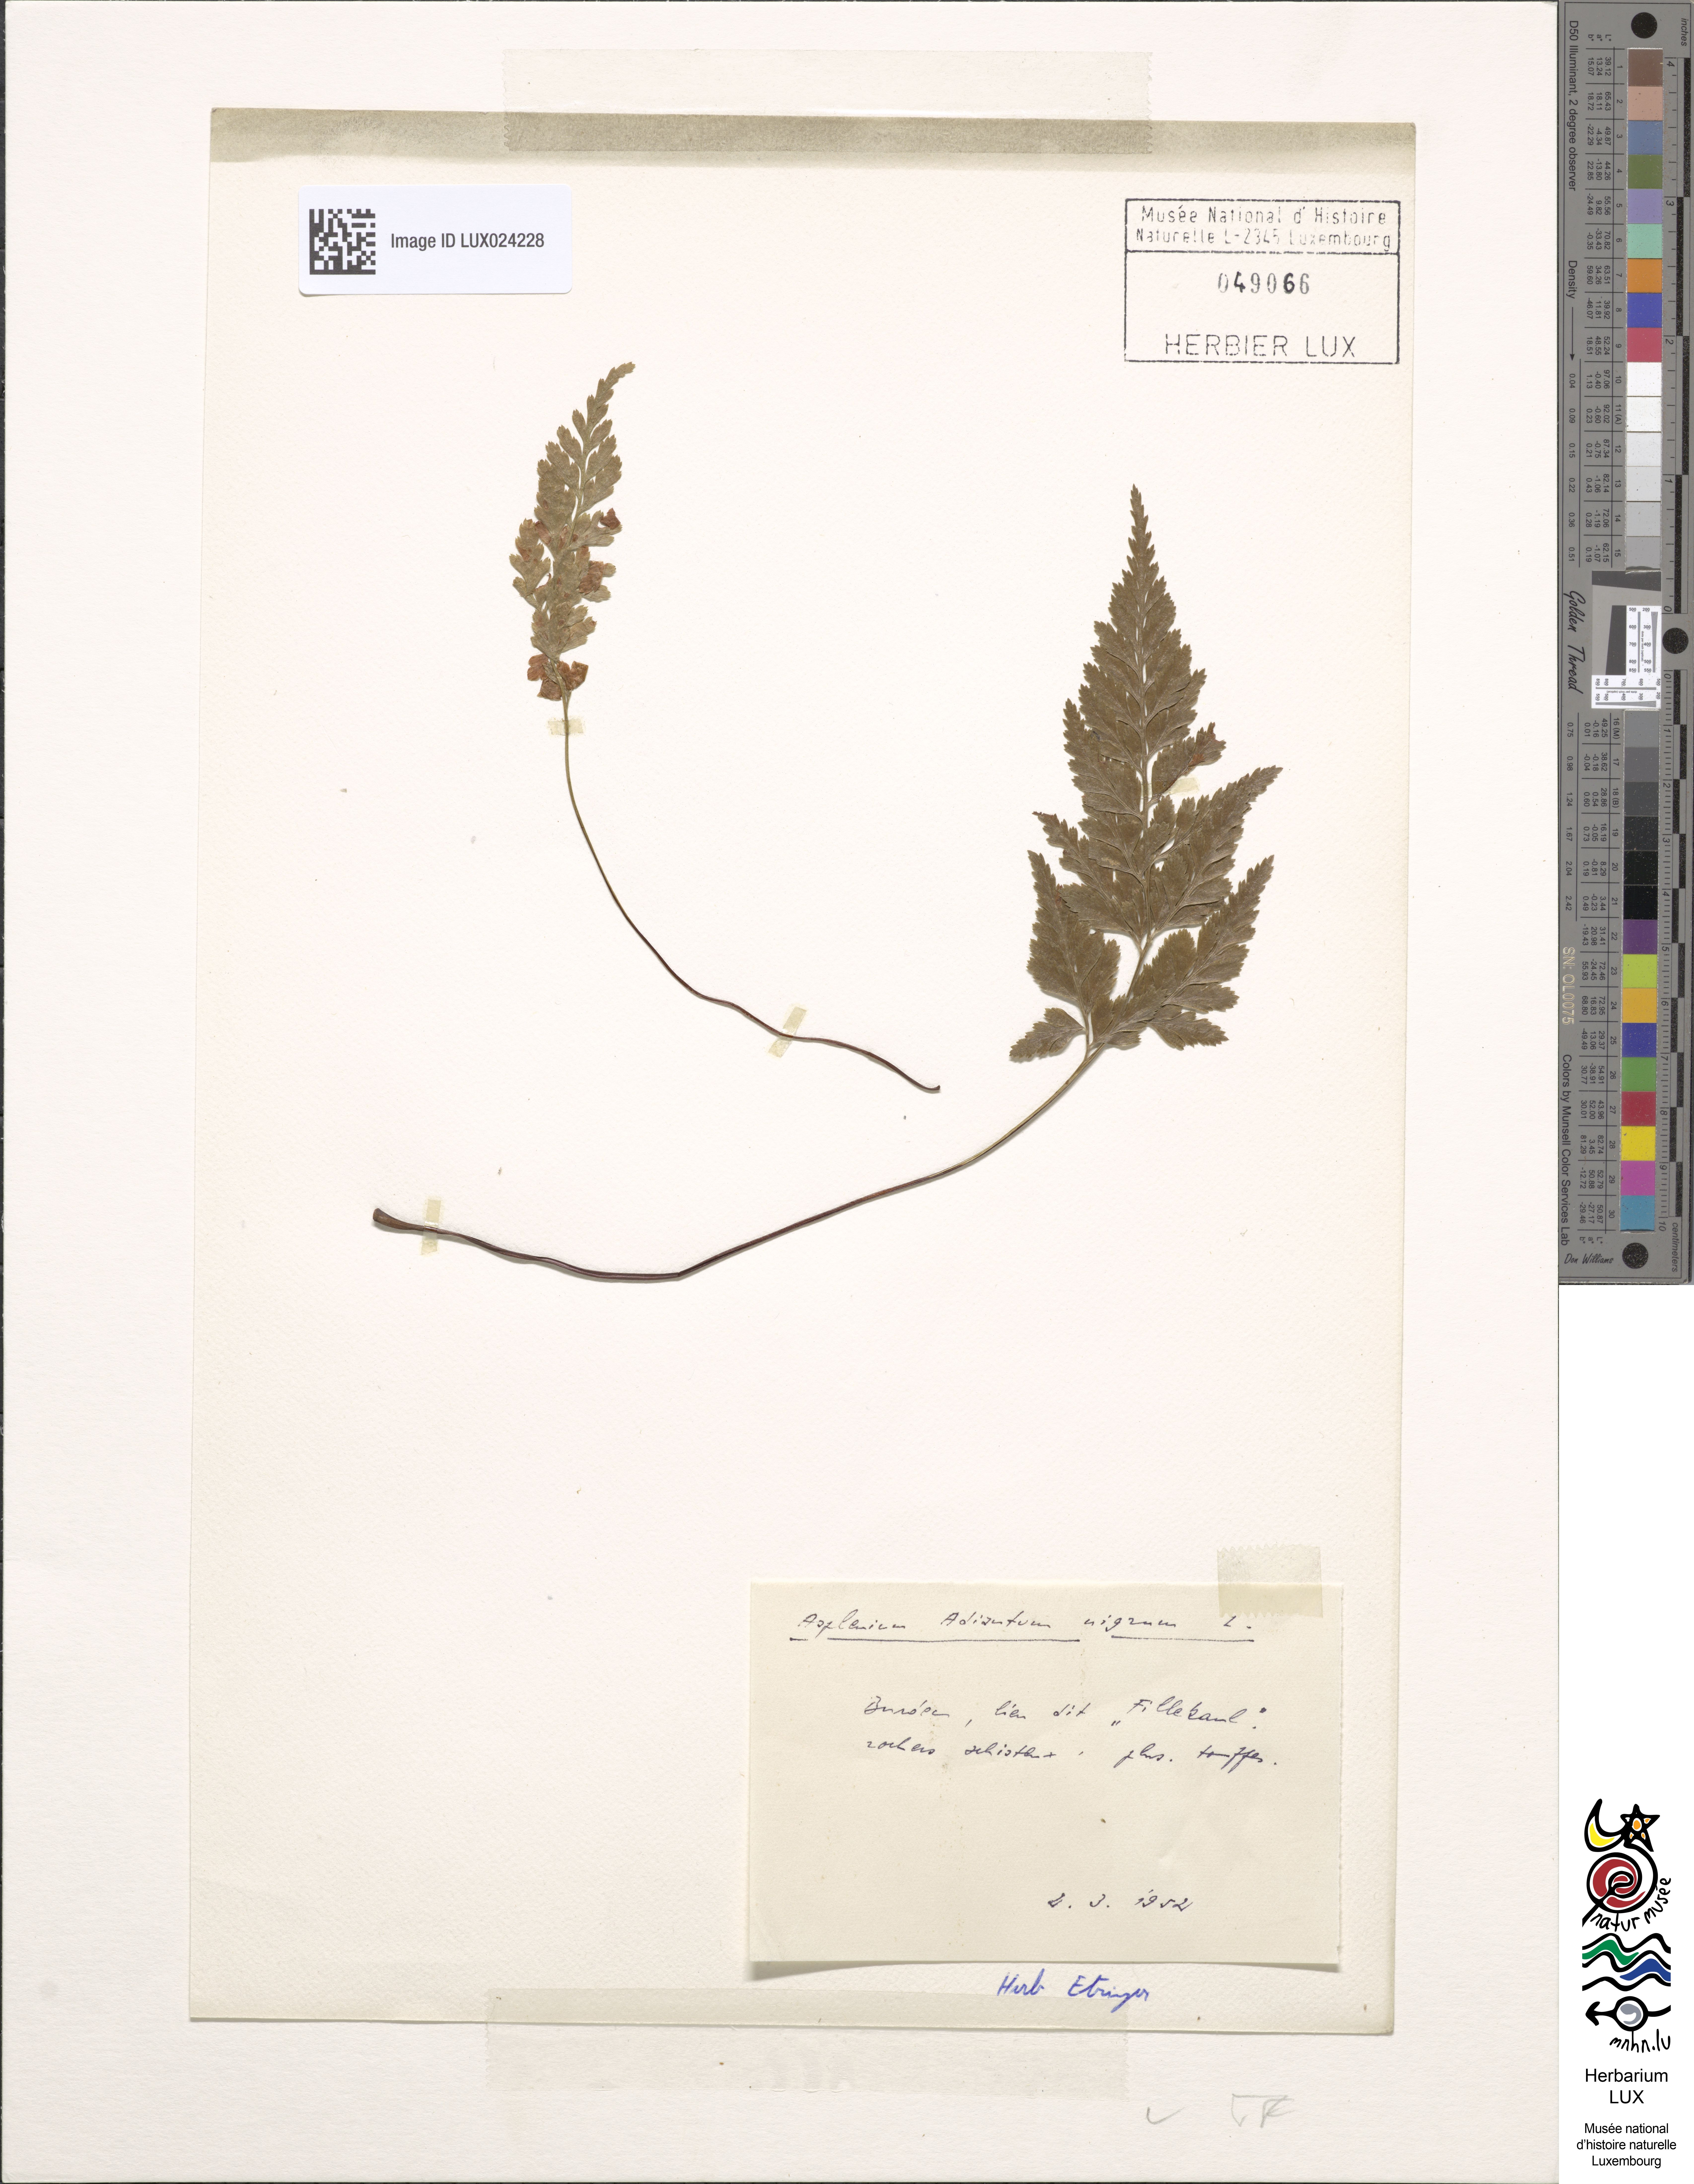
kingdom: Plantae
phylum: Tracheophyta
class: Polypodiopsida
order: Polypodiales
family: Aspleniaceae
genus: Asplenium
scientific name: Asplenium adiantum-nigrum
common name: Black spleenwort
